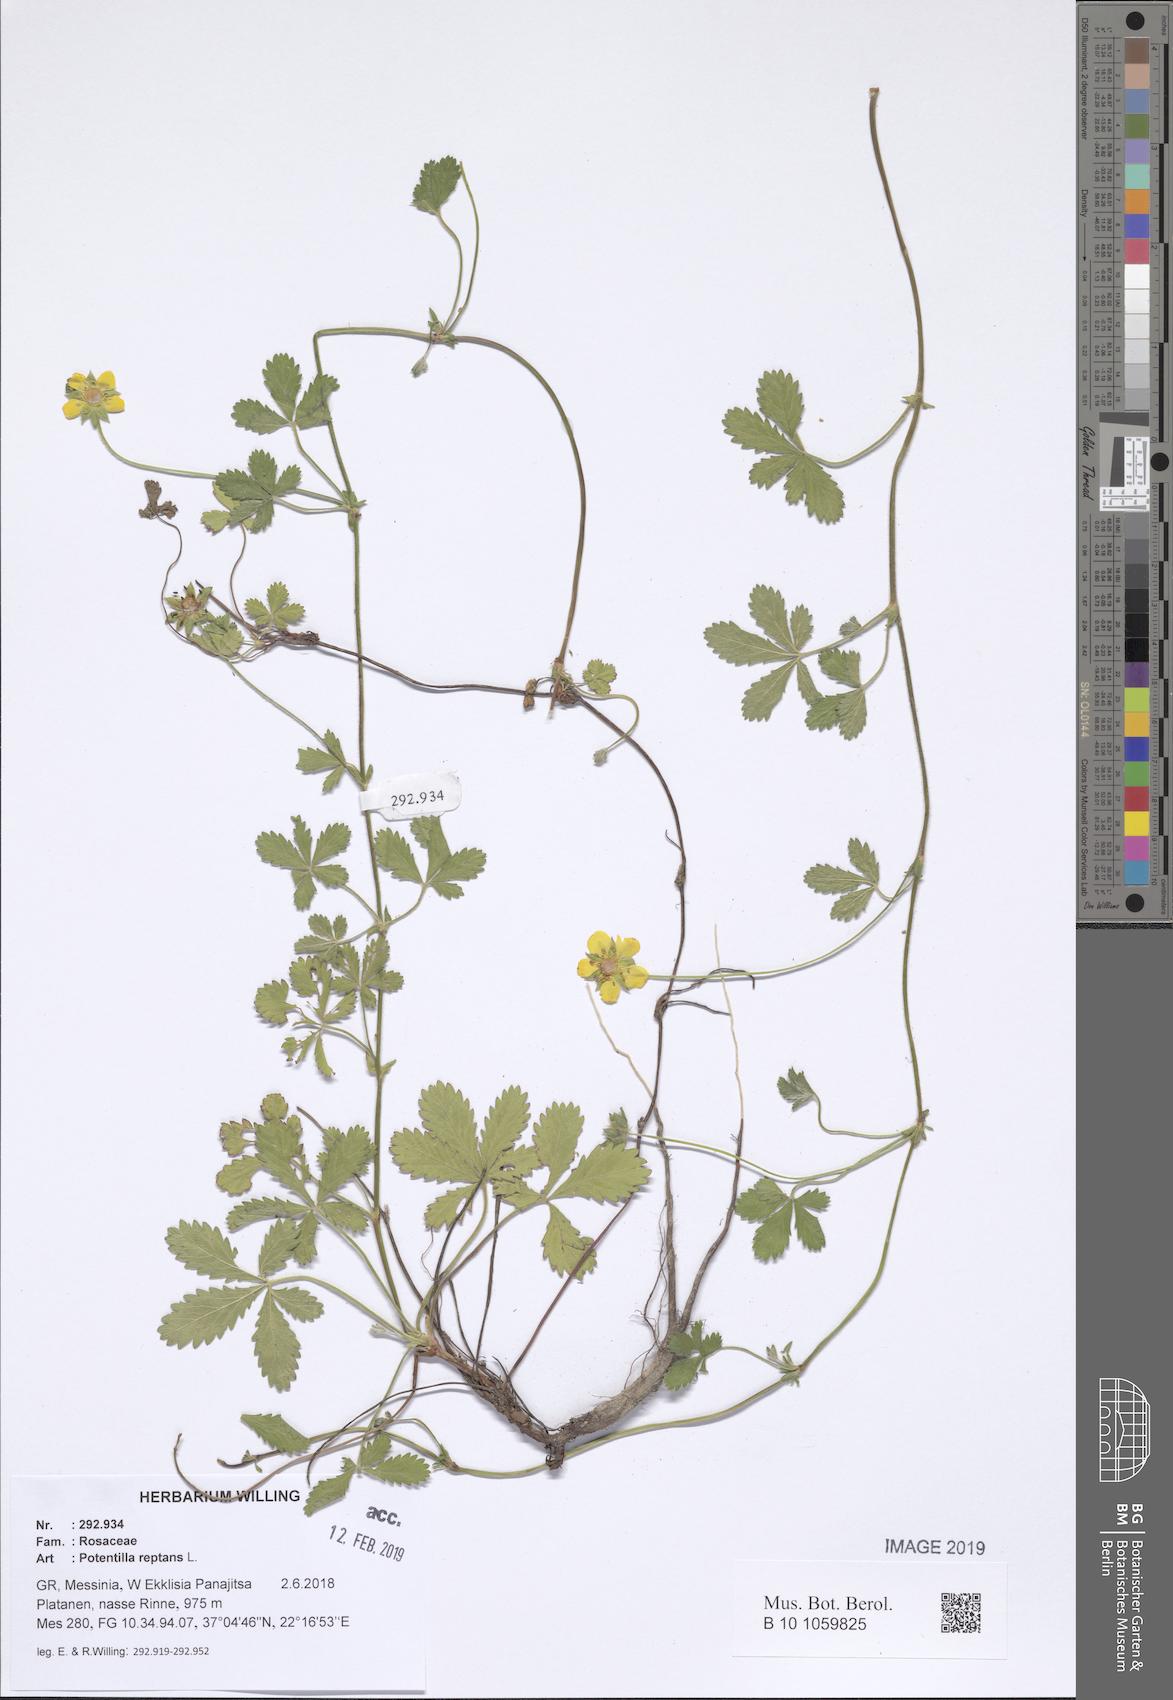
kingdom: Plantae
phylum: Tracheophyta
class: Magnoliopsida
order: Rosales
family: Rosaceae
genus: Potentilla
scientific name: Potentilla reptans
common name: Creeping cinquefoil
